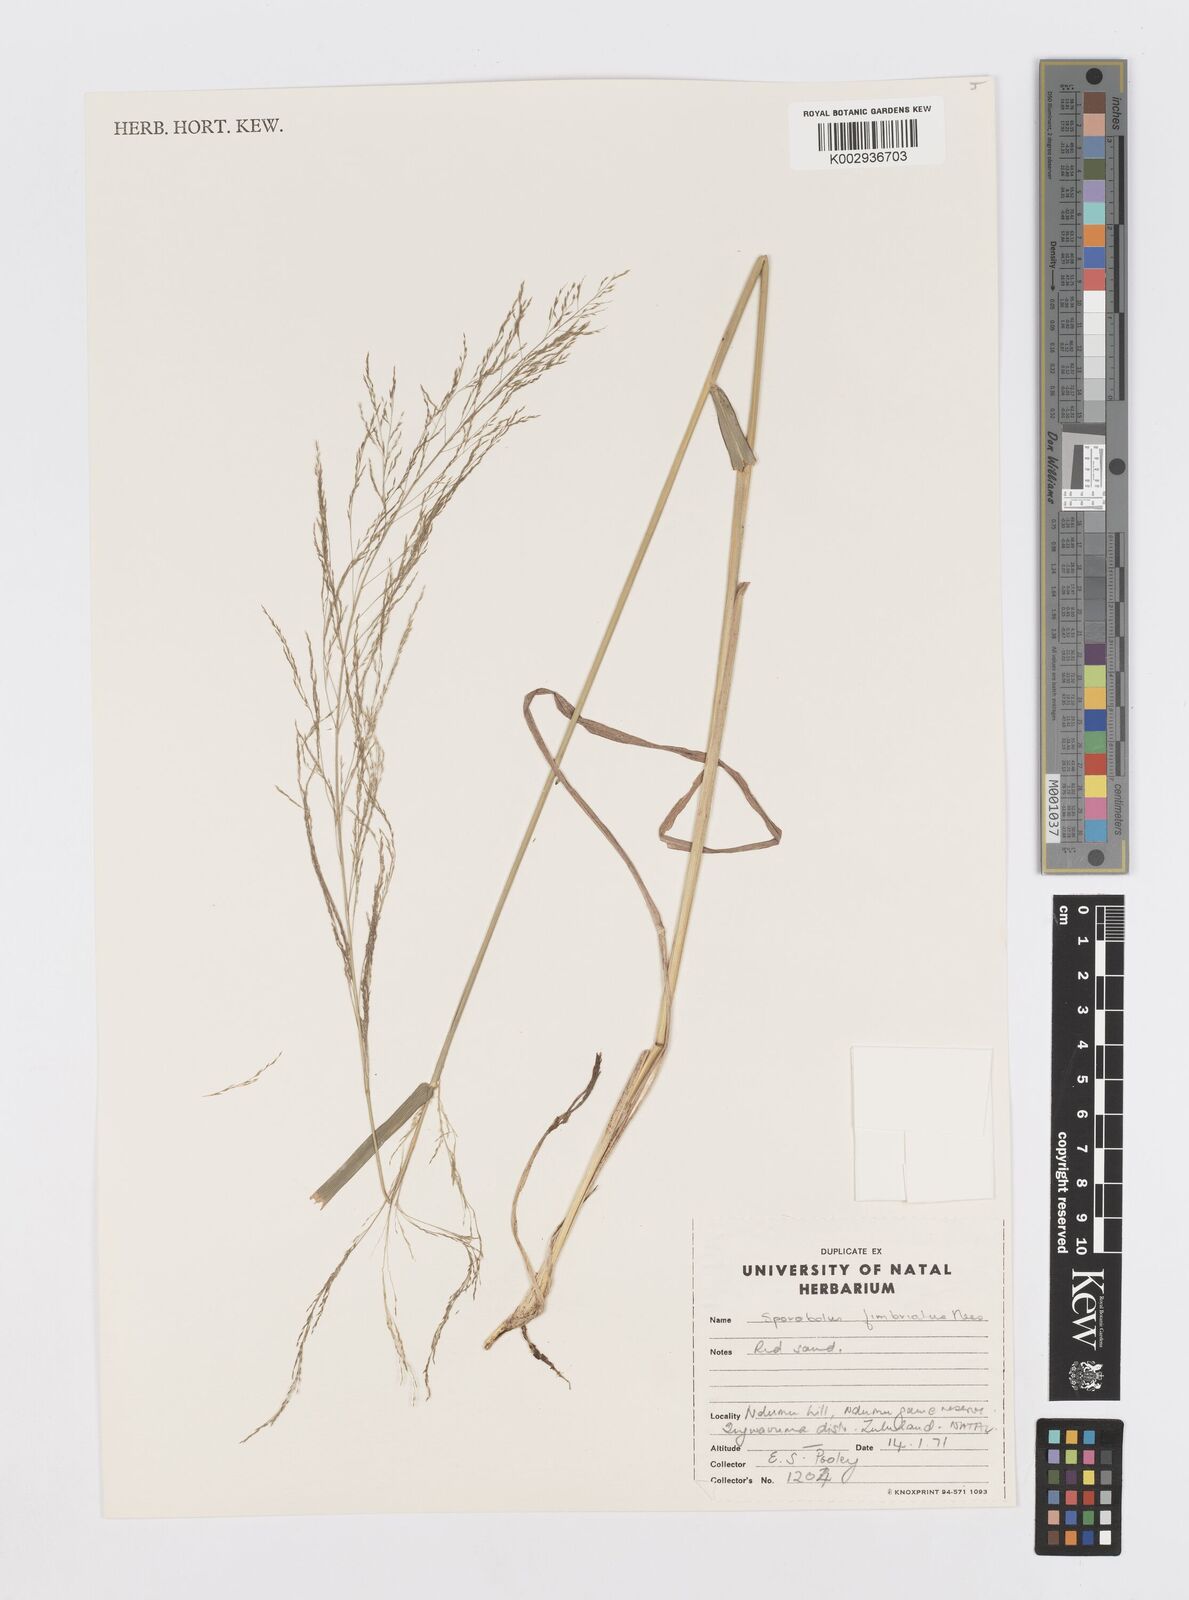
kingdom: Plantae
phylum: Tracheophyta
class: Liliopsida
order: Poales
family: Poaceae
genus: Sporobolus
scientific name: Sporobolus fimbriatus
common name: Fringed dropseed
